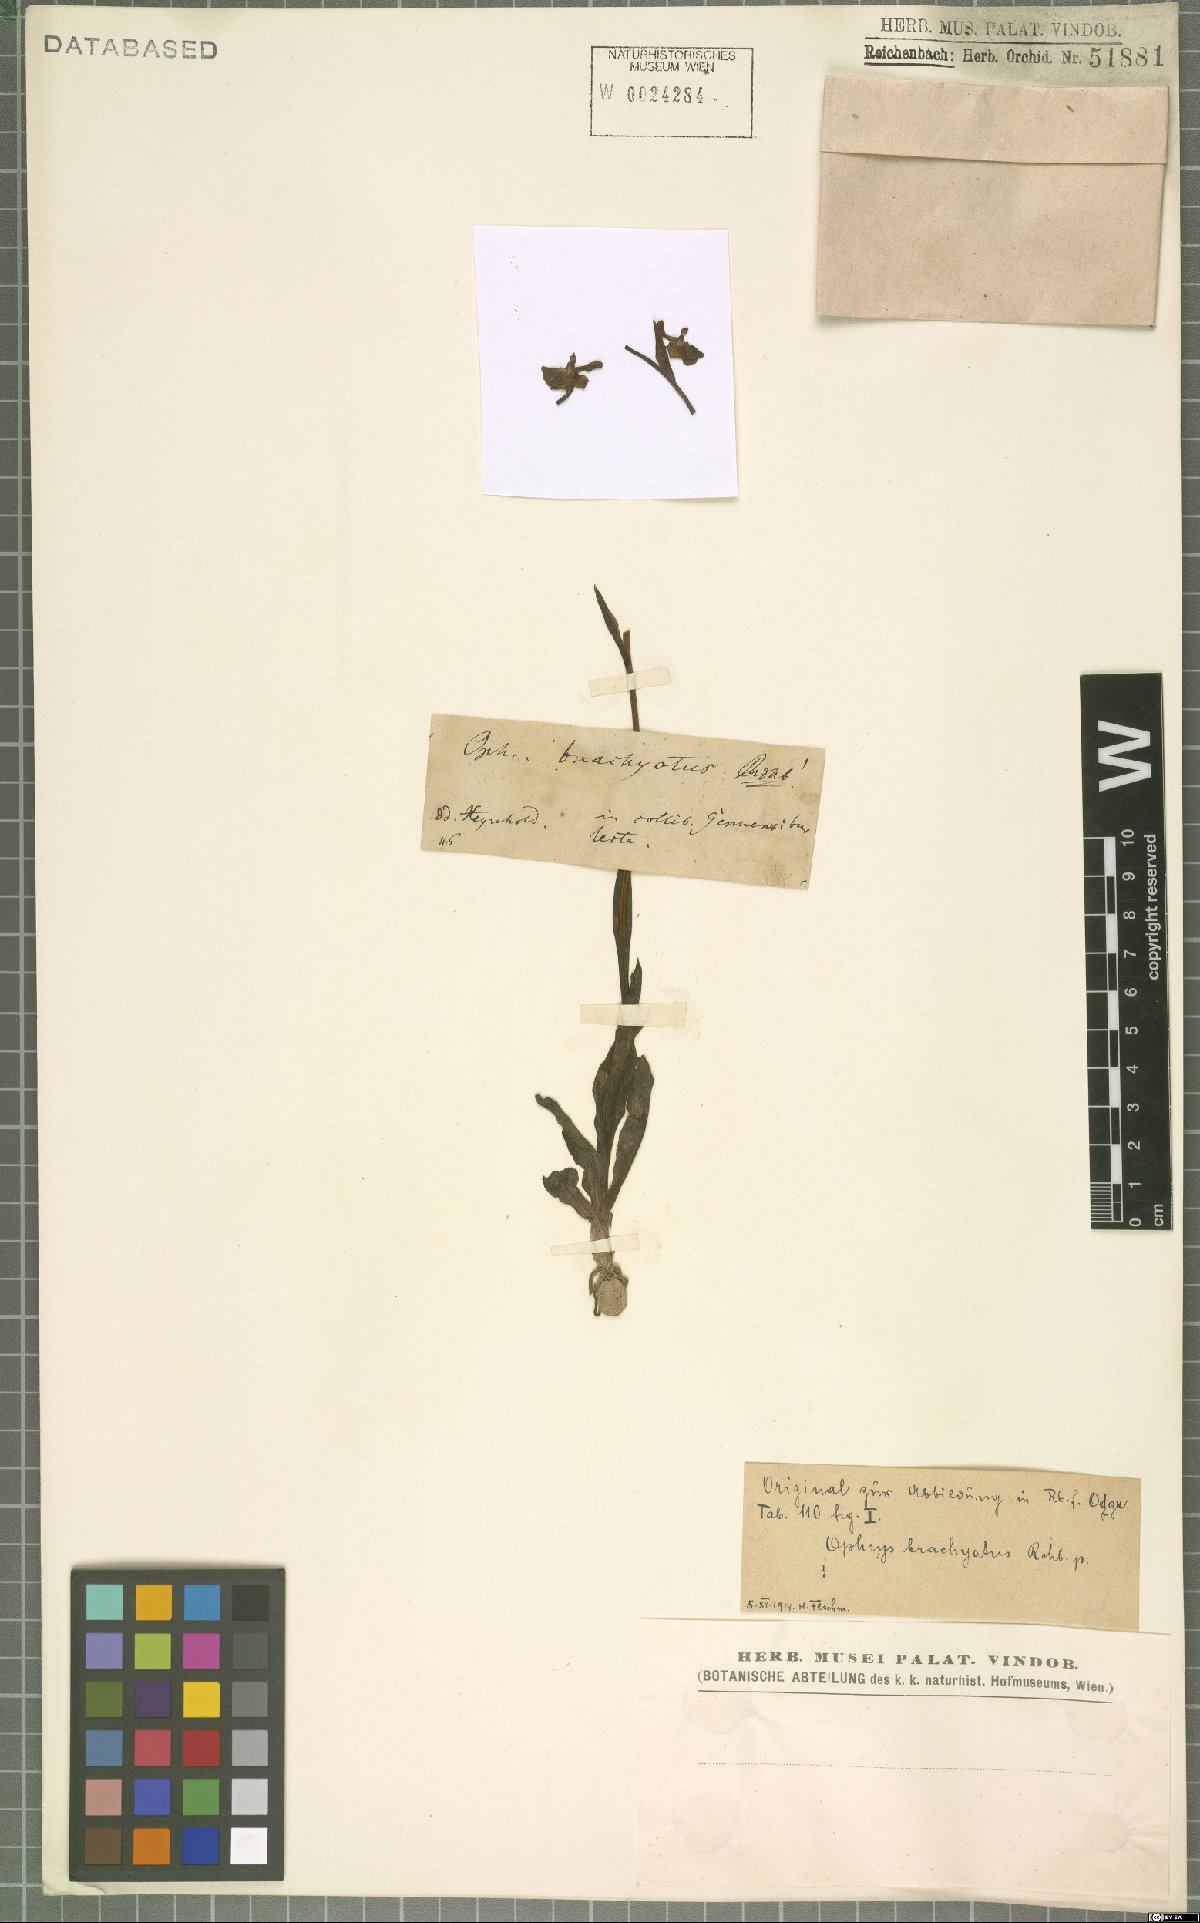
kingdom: Plantae
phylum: Tracheophyta
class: Liliopsida
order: Asparagales
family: Orchidaceae
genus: Ophrys
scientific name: Ophrys holosericea
